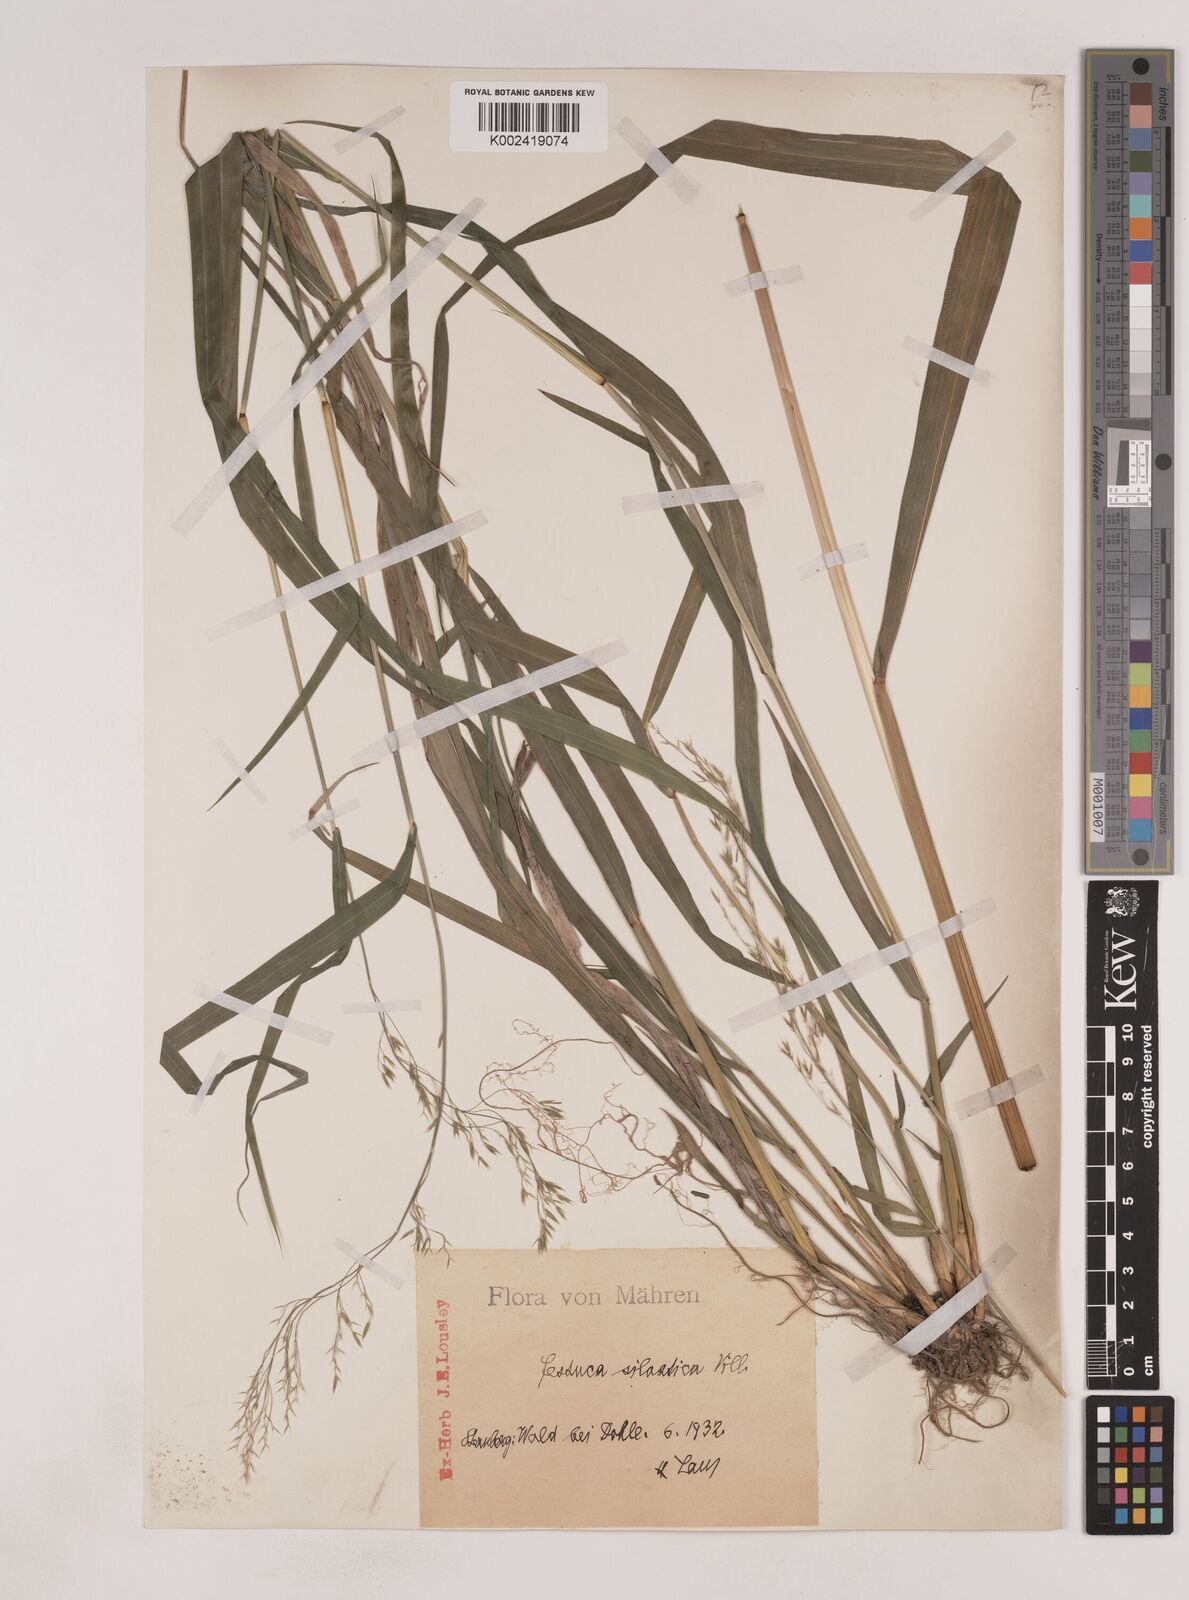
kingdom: Plantae
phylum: Tracheophyta
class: Liliopsida
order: Poales
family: Poaceae
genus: Festuca
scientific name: Festuca drymeja
